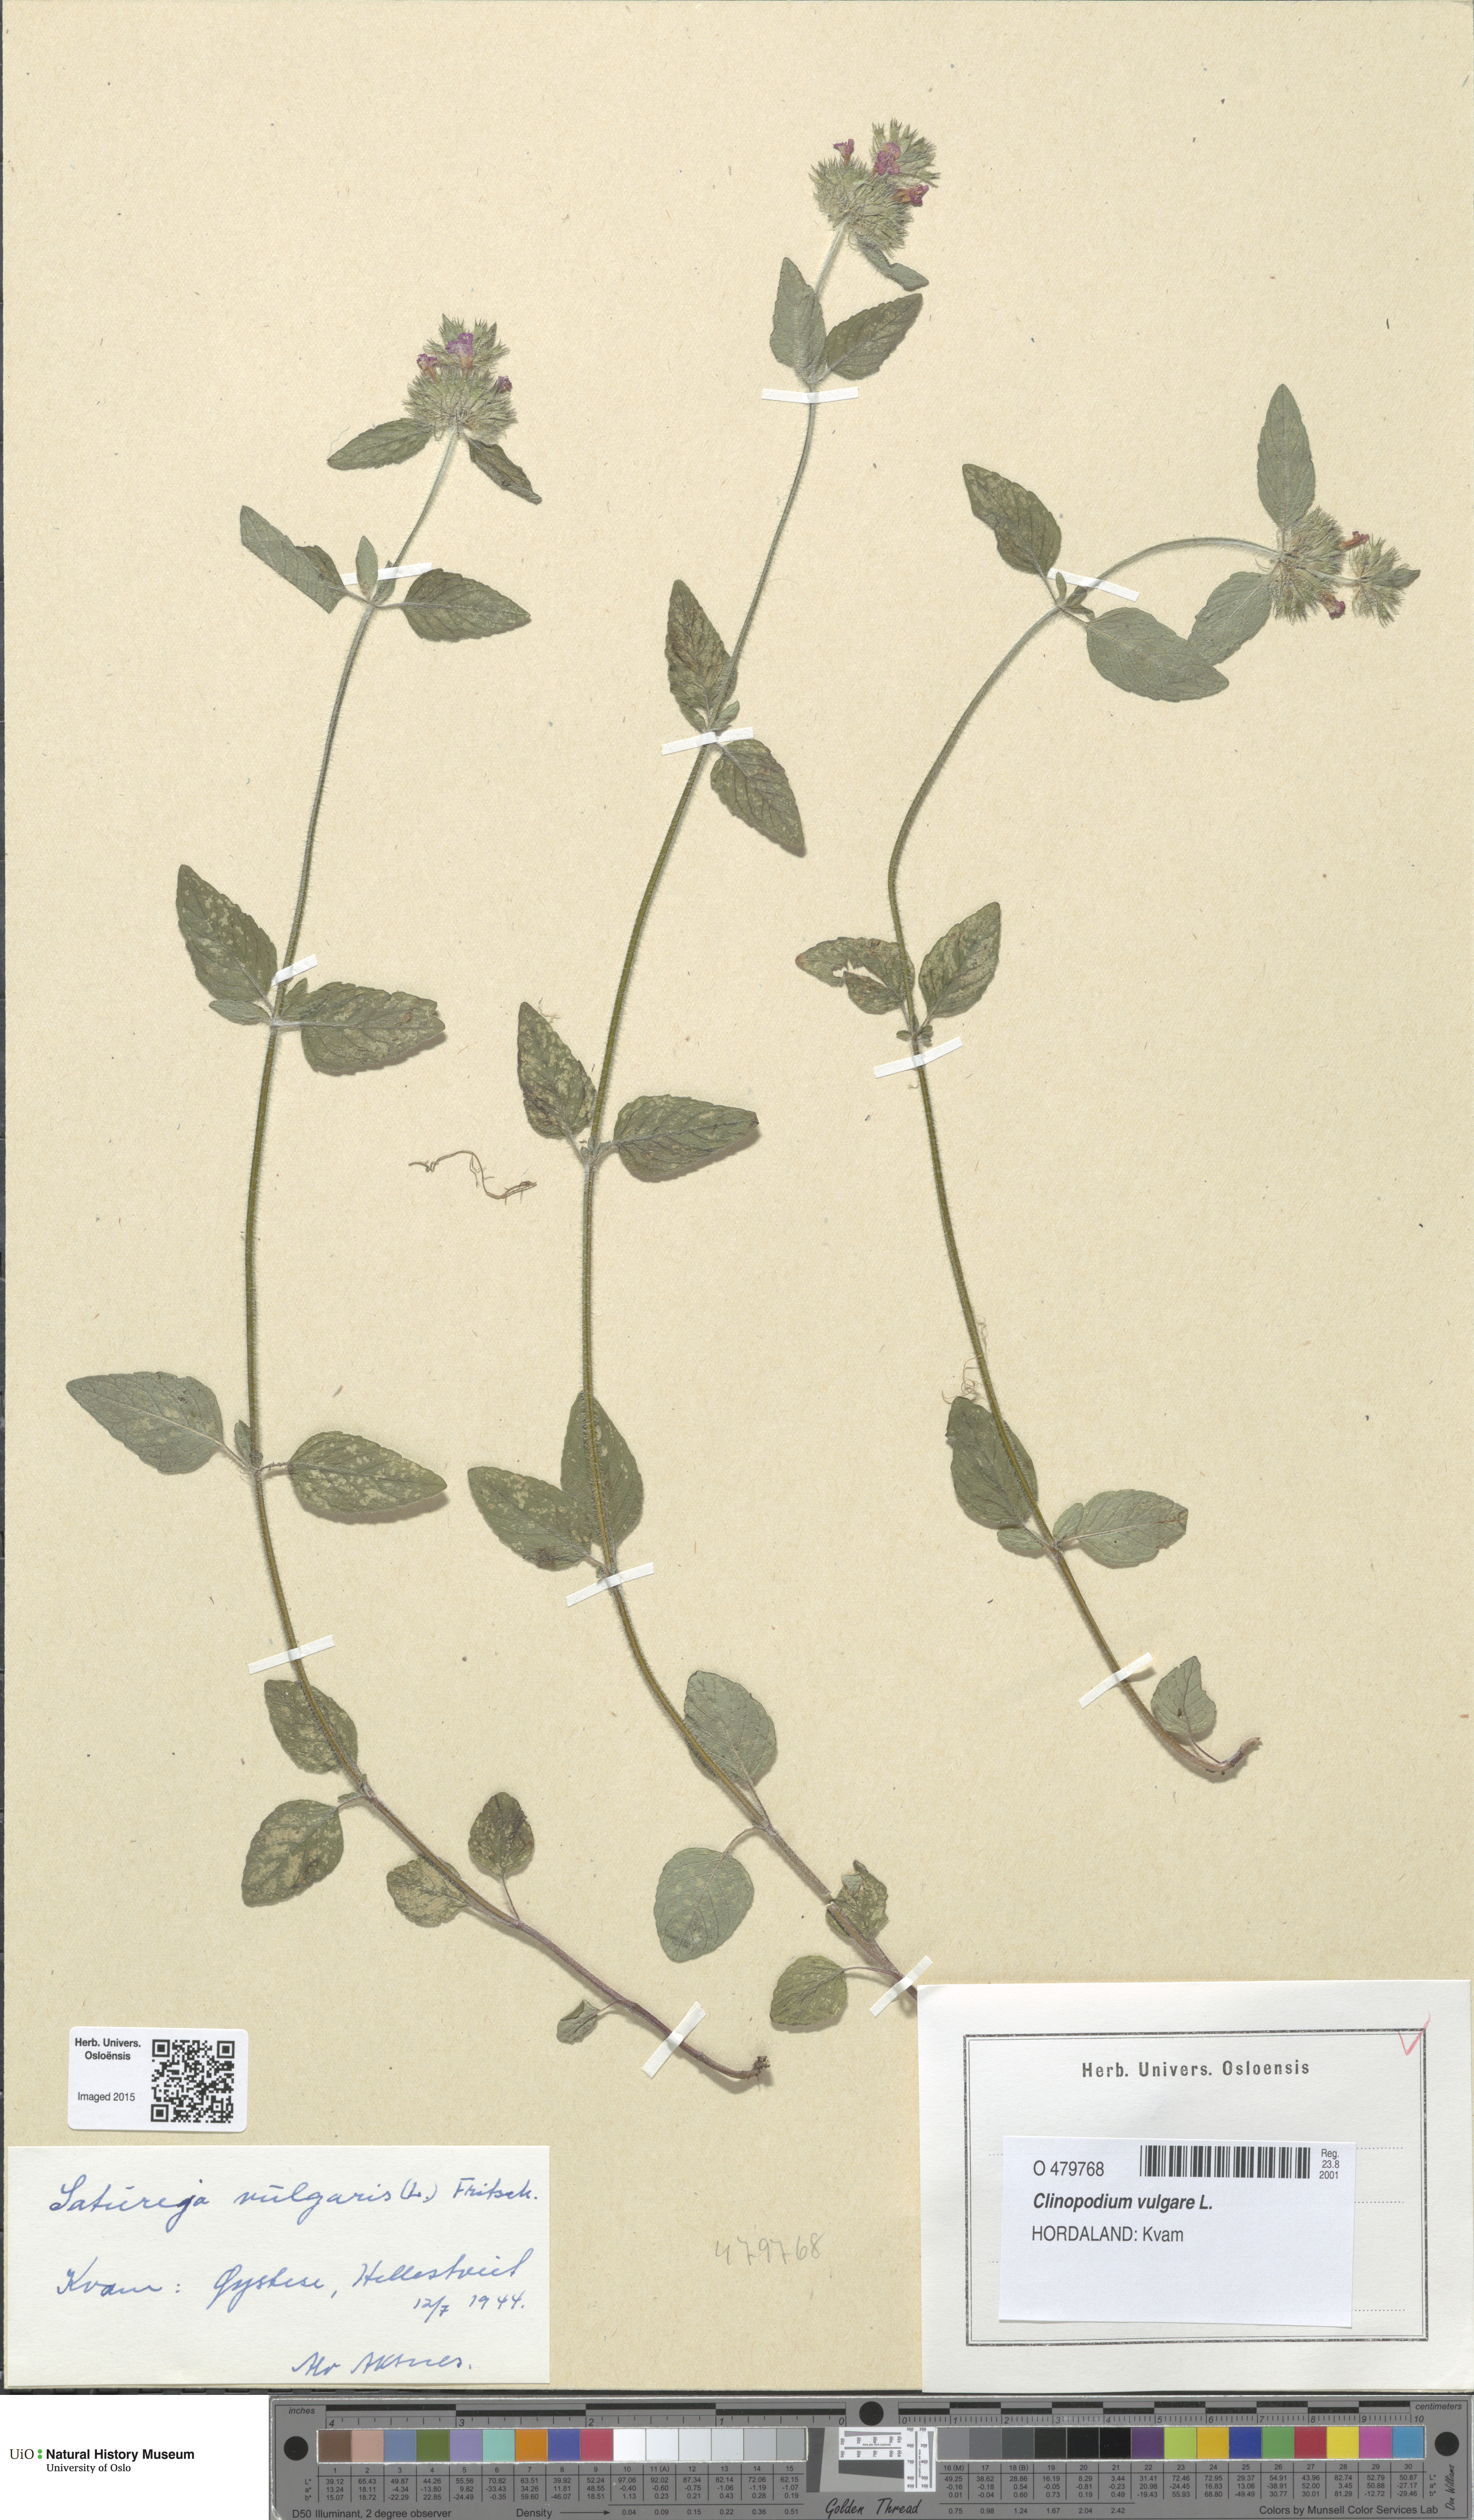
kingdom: Plantae
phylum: Tracheophyta
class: Magnoliopsida
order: Lamiales
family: Lamiaceae
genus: Clinopodium
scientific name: Clinopodium vulgare
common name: Wild basil
